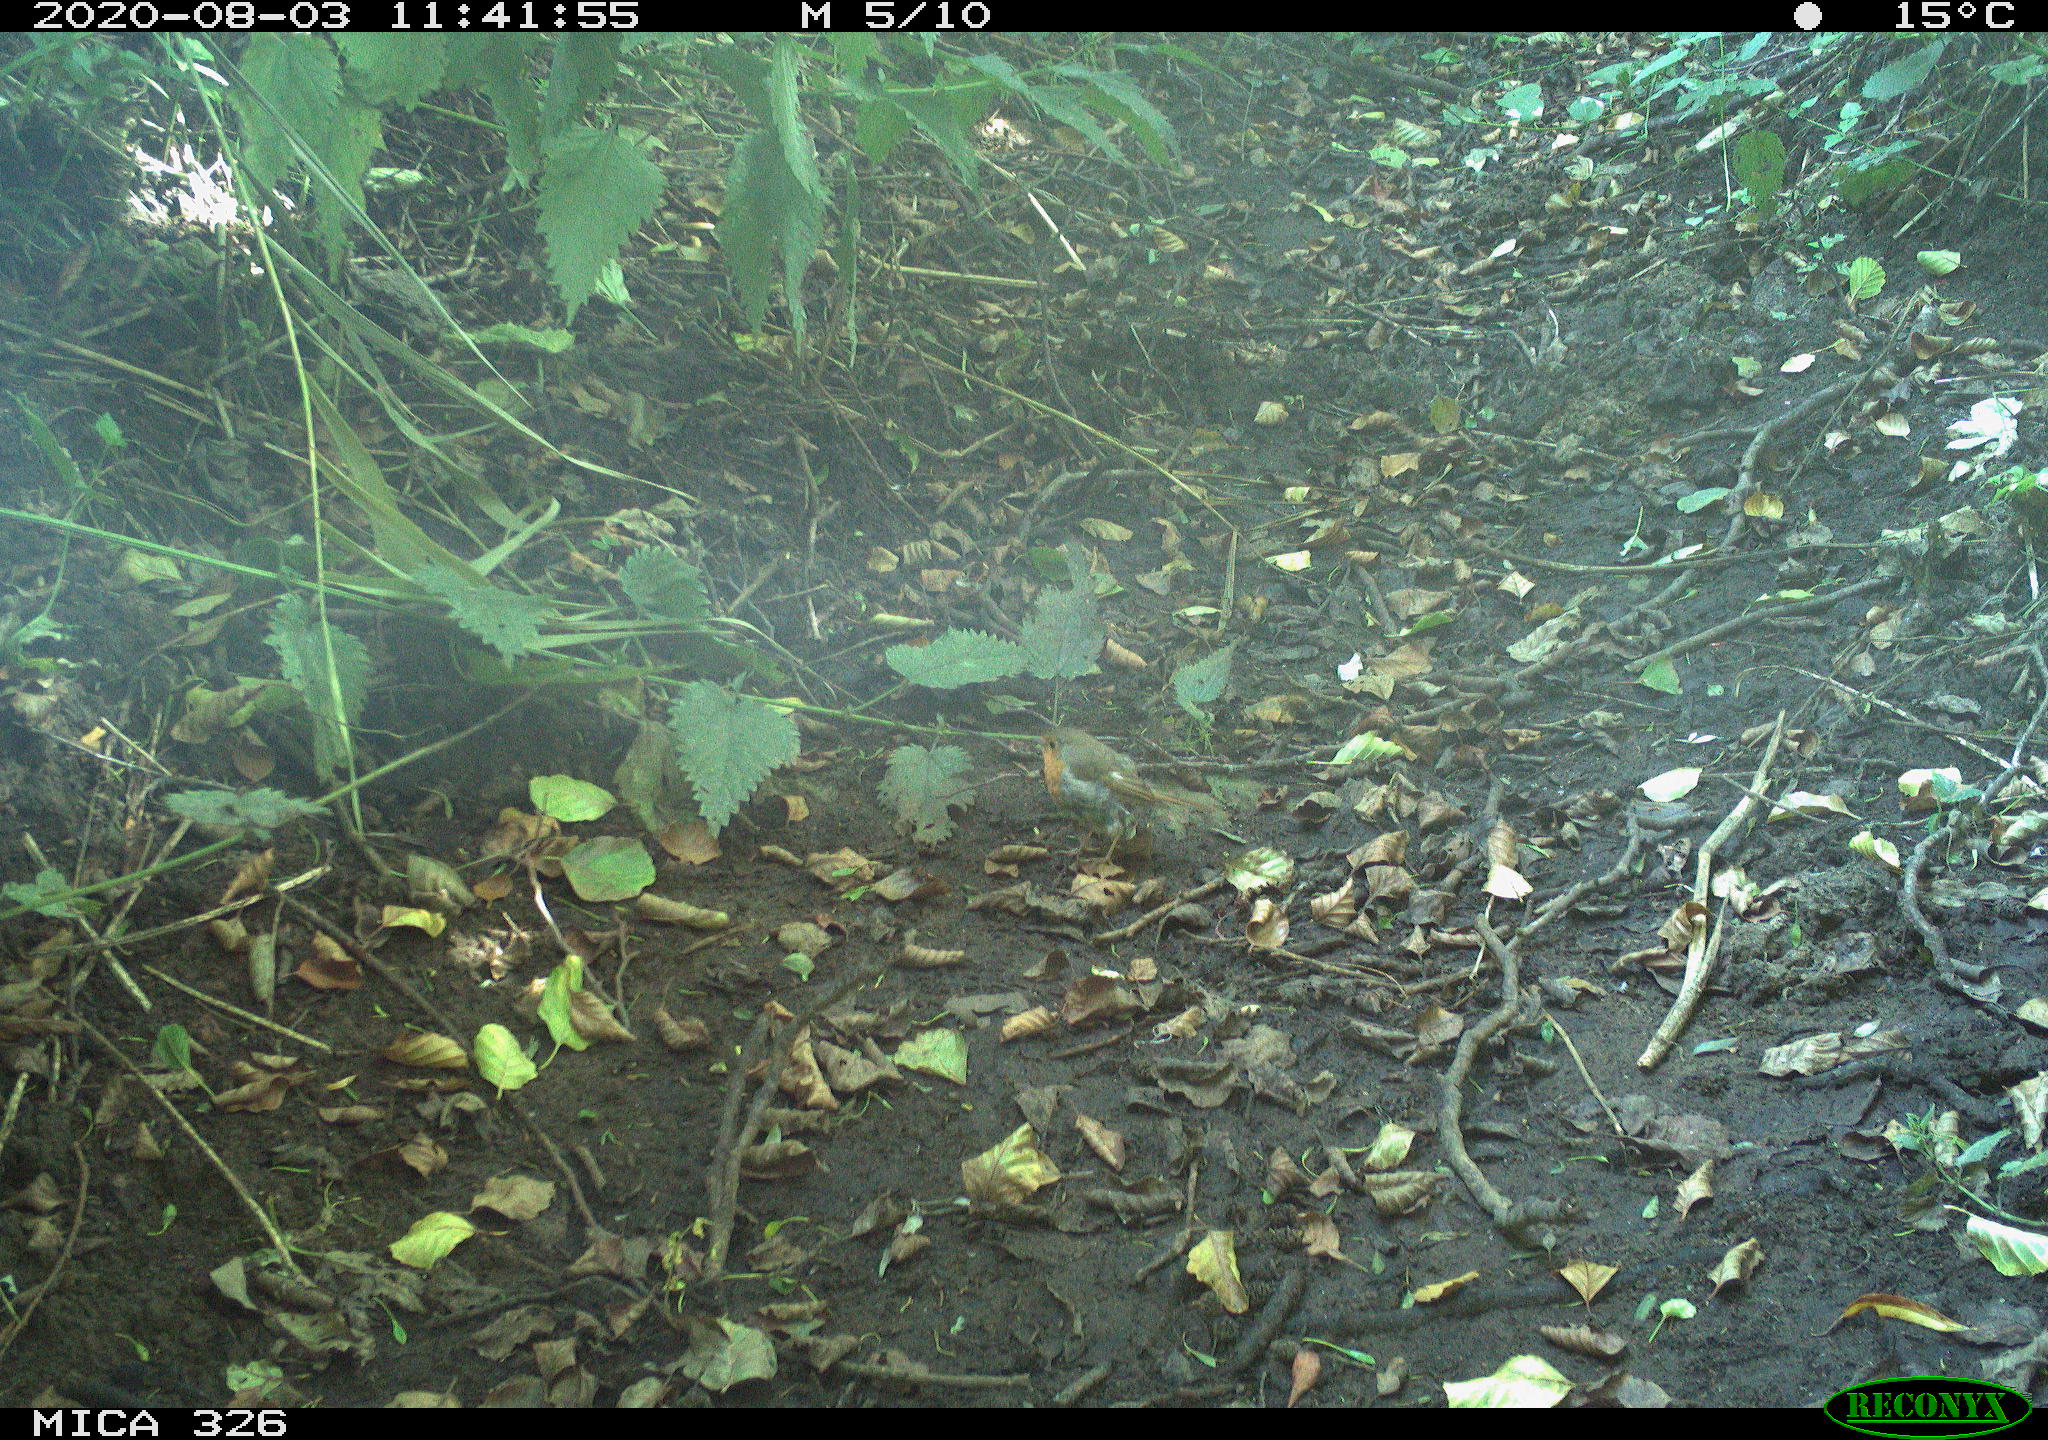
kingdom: Animalia
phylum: Chordata
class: Aves
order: Passeriformes
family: Muscicapidae
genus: Erithacus
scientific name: Erithacus rubecula
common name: European robin
